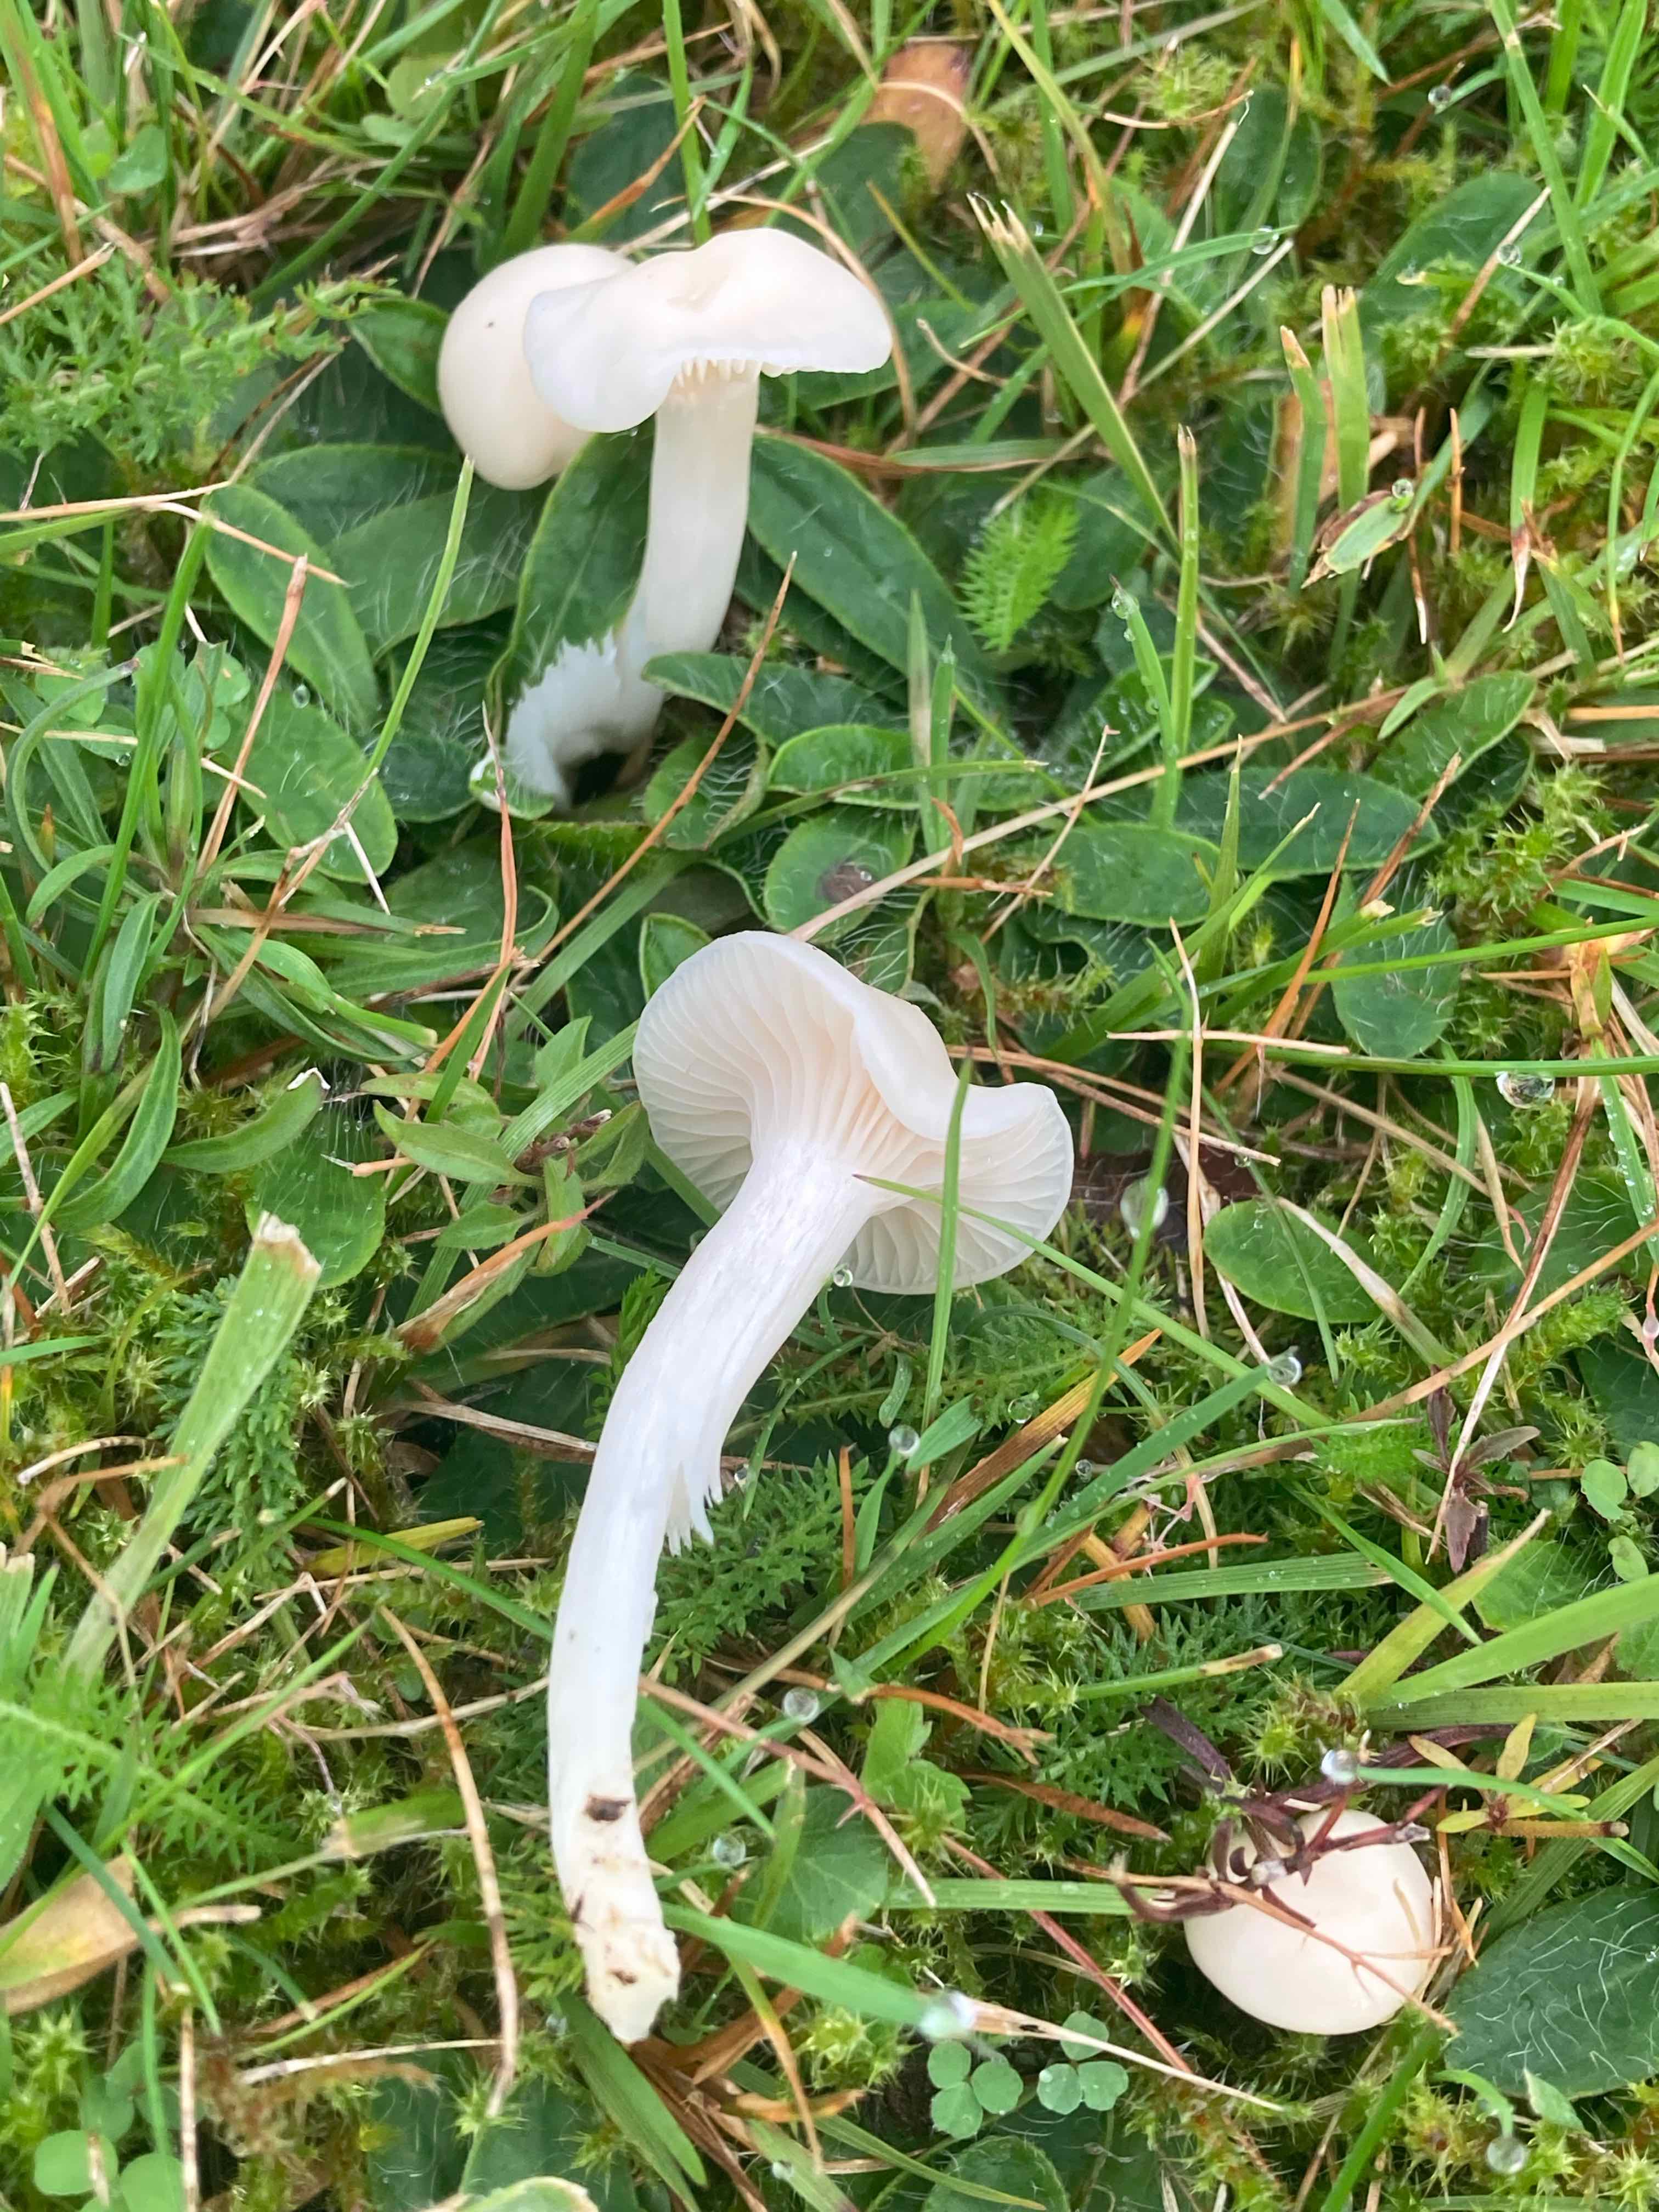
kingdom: Fungi
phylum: Basidiomycota
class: Agaricomycetes
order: Agaricales
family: Hygrophoraceae
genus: Cuphophyllus
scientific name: Cuphophyllus virgineus
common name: snehvid vokshat
